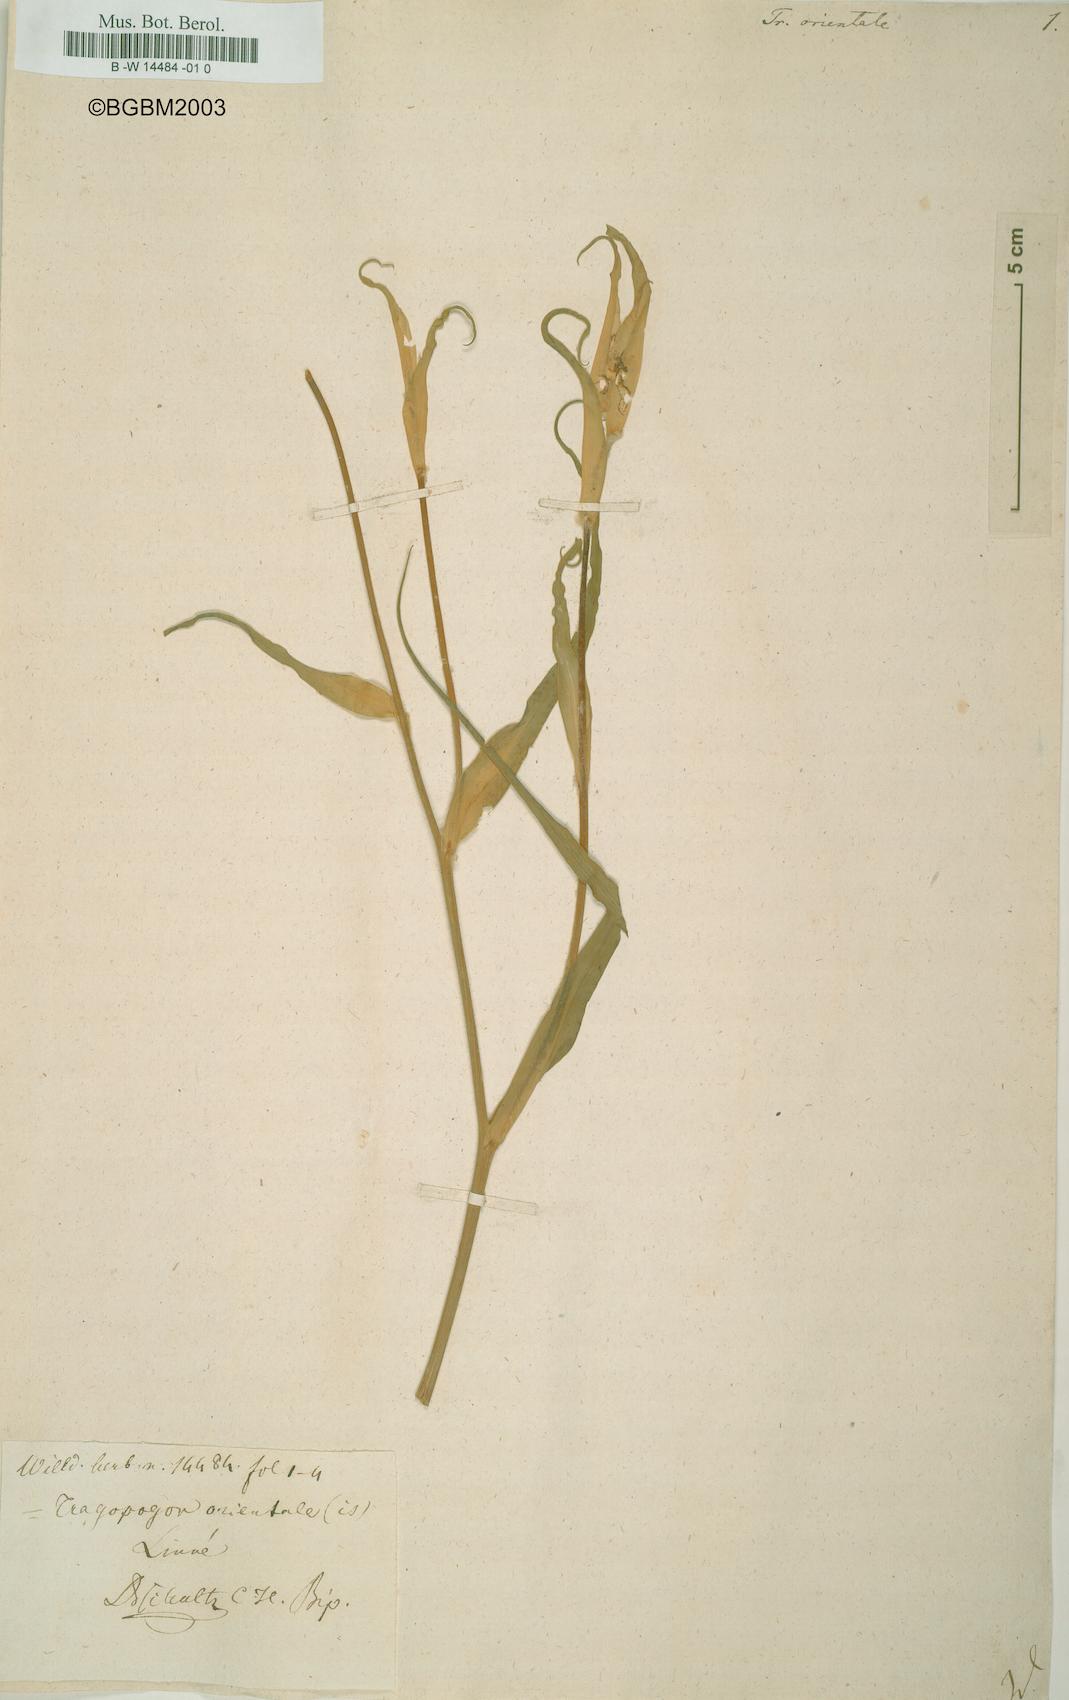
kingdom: Plantae
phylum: Tracheophyta
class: Magnoliopsida
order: Asterales
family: Asteraceae
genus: Tragopogon
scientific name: Tragopogon orientalis
